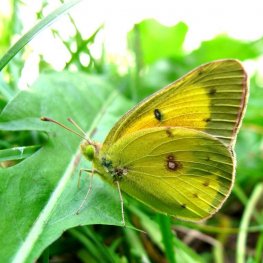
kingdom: Animalia
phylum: Arthropoda
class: Insecta
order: Lepidoptera
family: Pieridae
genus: Colias
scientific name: Colias eurytheme
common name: Orange Sulphur
